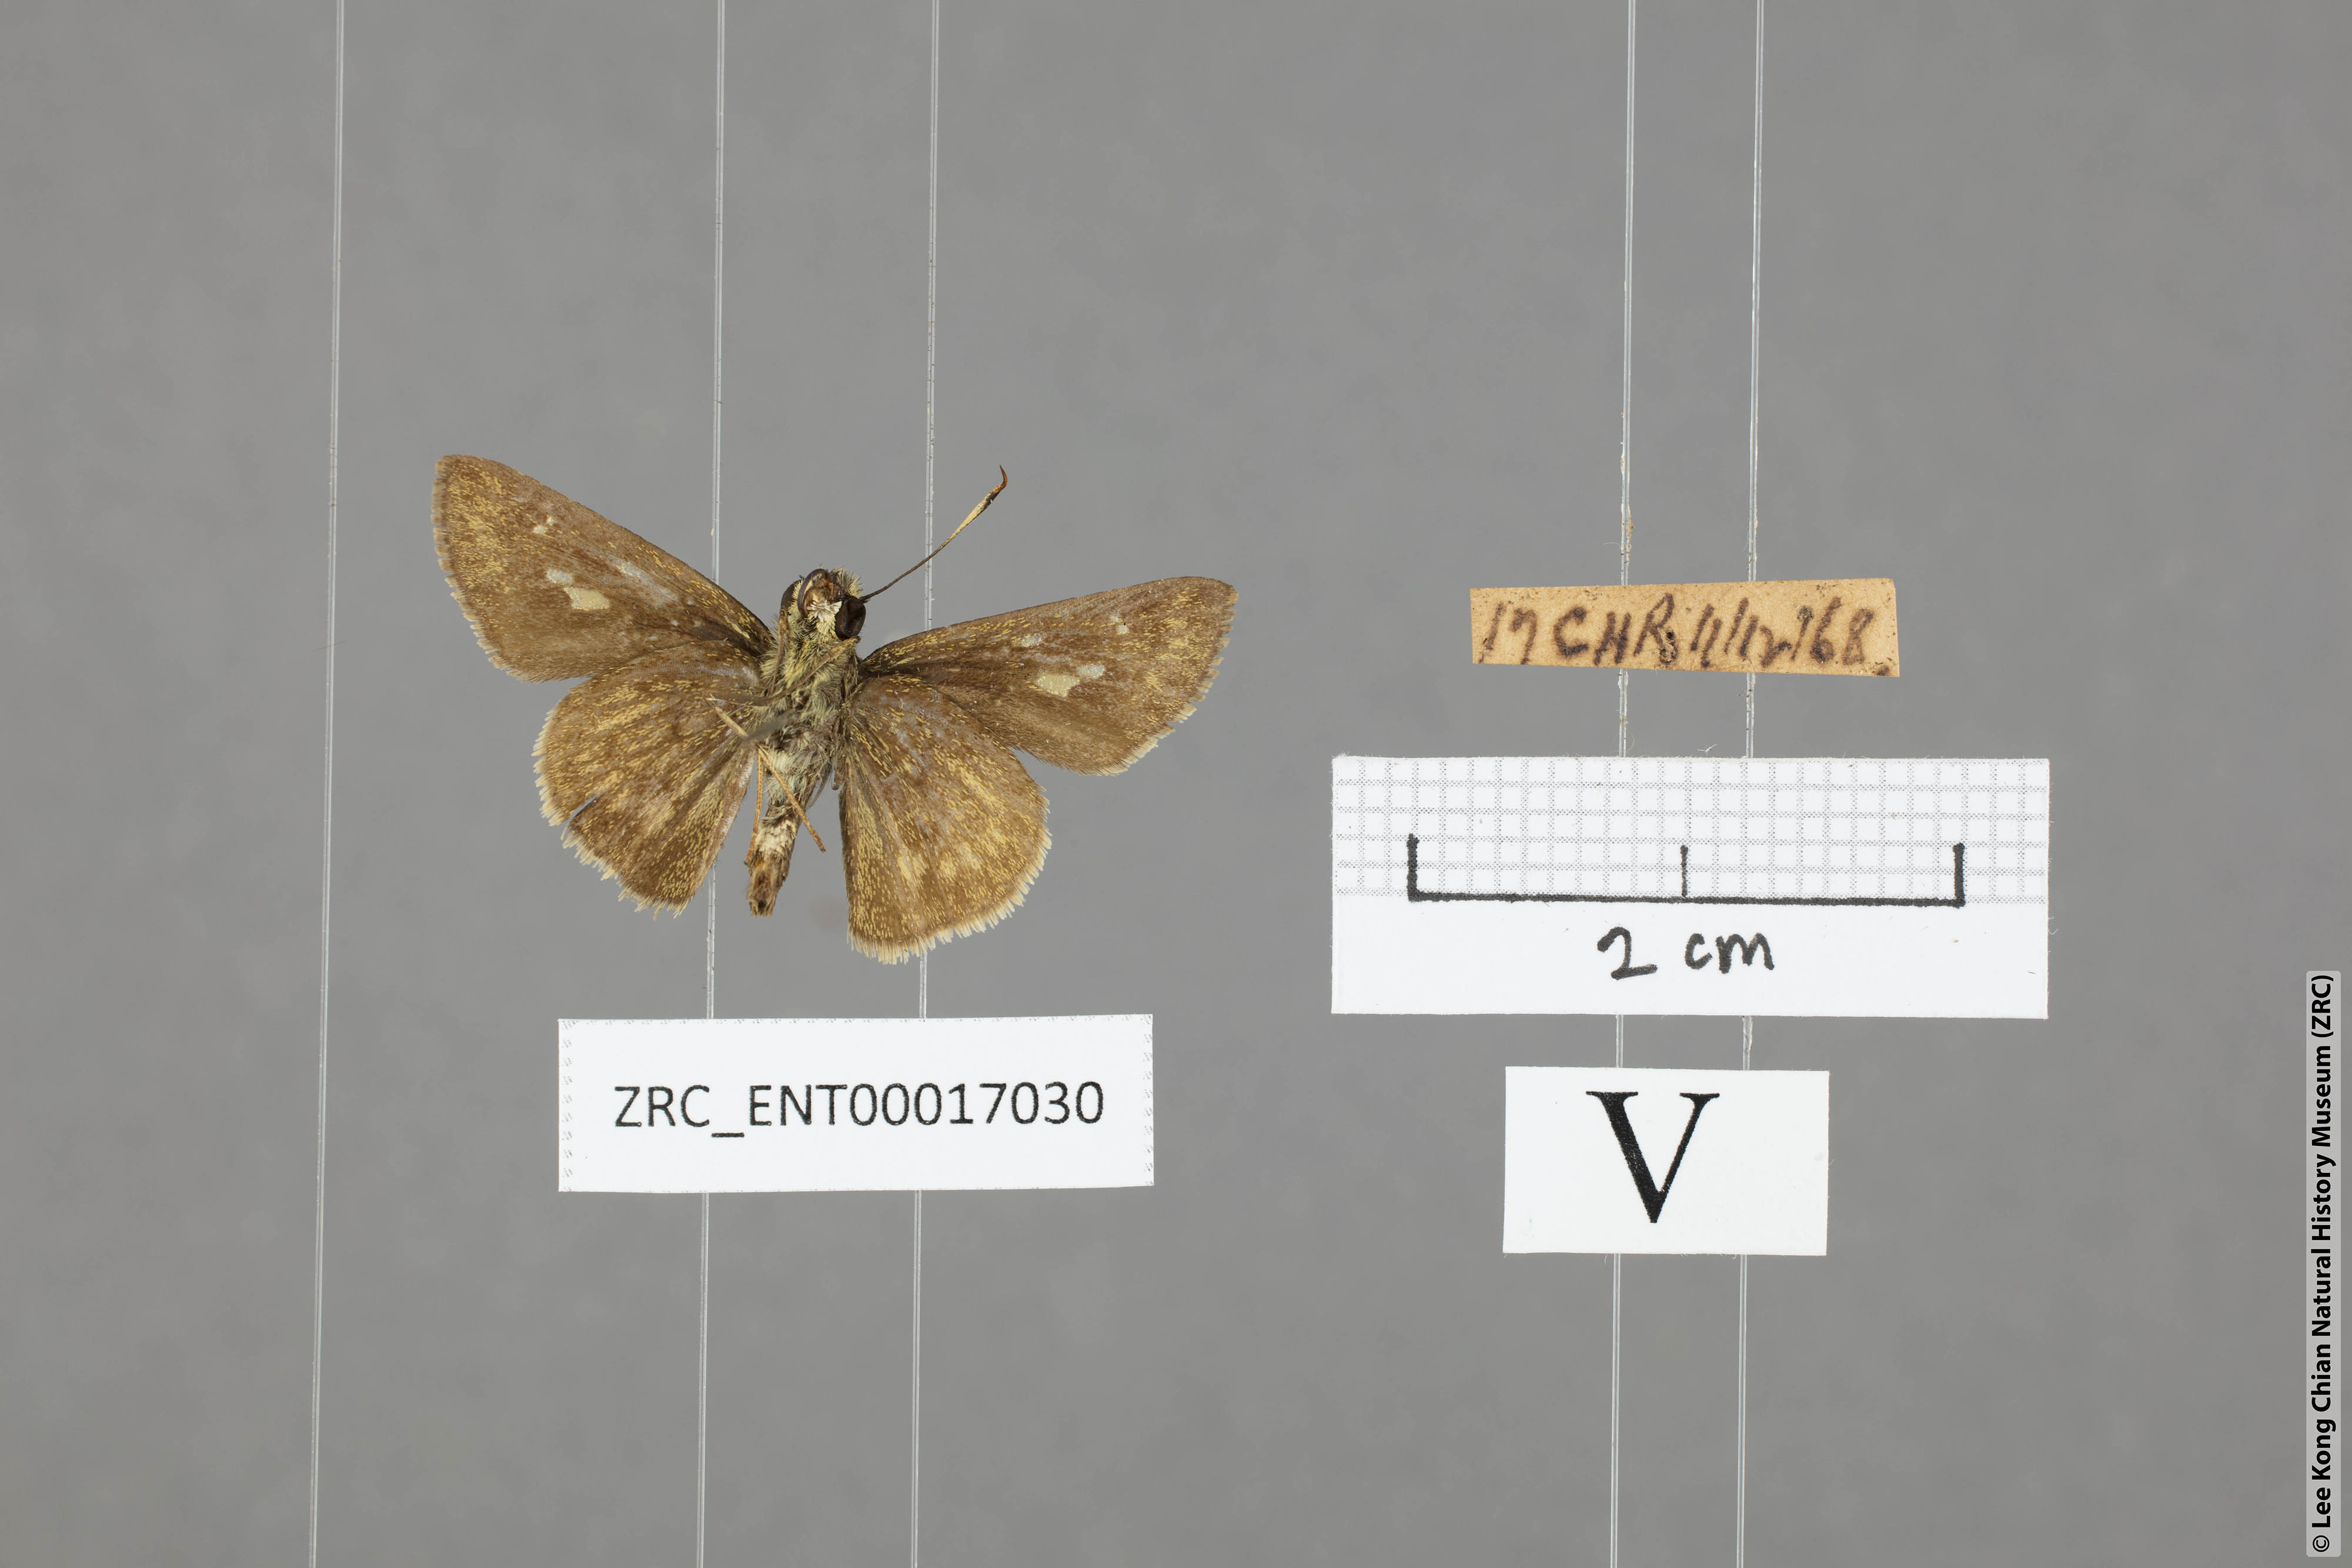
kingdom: Animalia
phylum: Arthropoda
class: Insecta
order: Lepidoptera
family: Hesperiidae
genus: Halpe
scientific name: Halpe pelethronix
